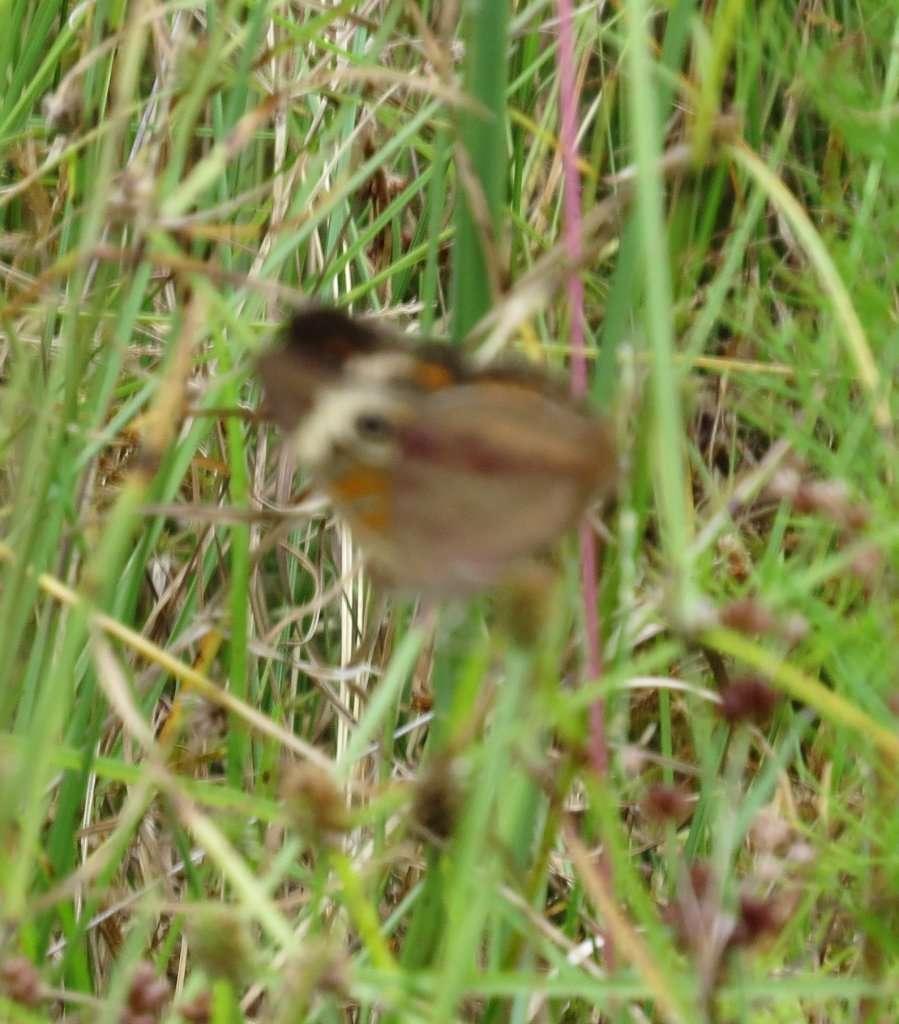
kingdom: Animalia
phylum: Arthropoda
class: Insecta
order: Lepidoptera
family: Nymphalidae
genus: Junonia
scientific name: Junonia coenia
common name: Common Buckeye
